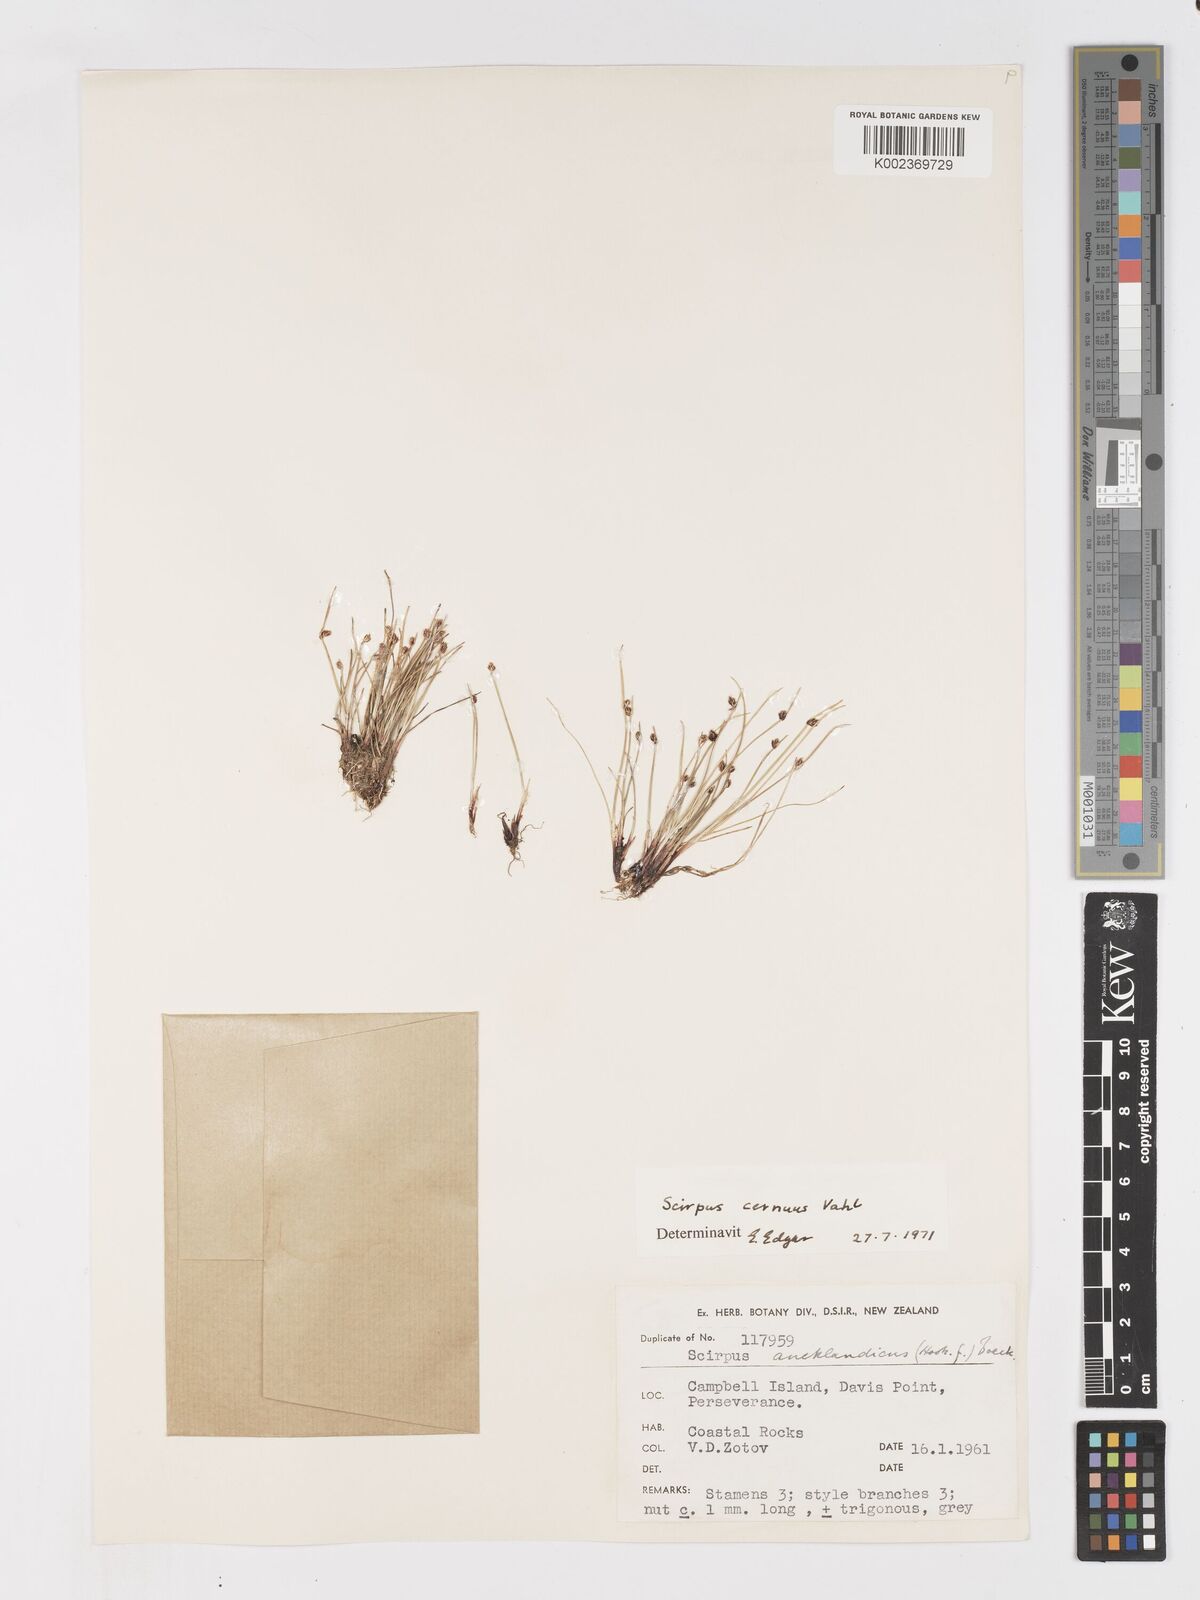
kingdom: Plantae
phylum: Tracheophyta
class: Liliopsida
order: Poales
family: Cyperaceae
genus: Isolepis
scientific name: Isolepis cernua
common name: Slender club-rush
